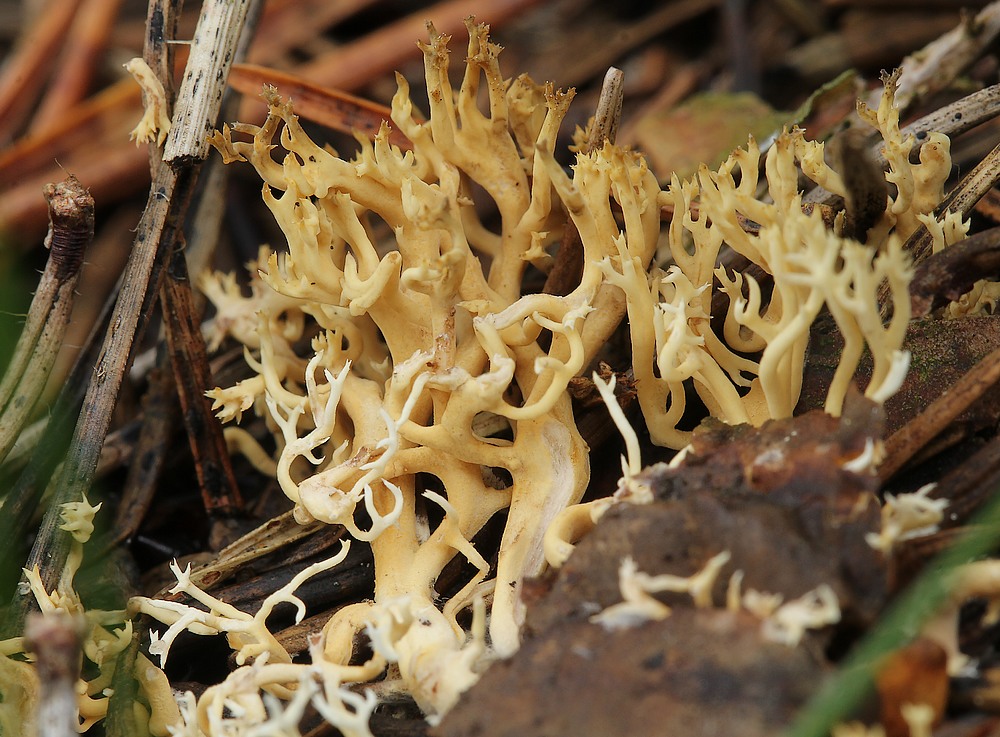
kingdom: Fungi
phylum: Basidiomycota
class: Agaricomycetes
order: Gomphales
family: Gomphaceae
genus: Phaeoclavulina
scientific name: Phaeoclavulina flaccida
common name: spinkel koralsvamp
